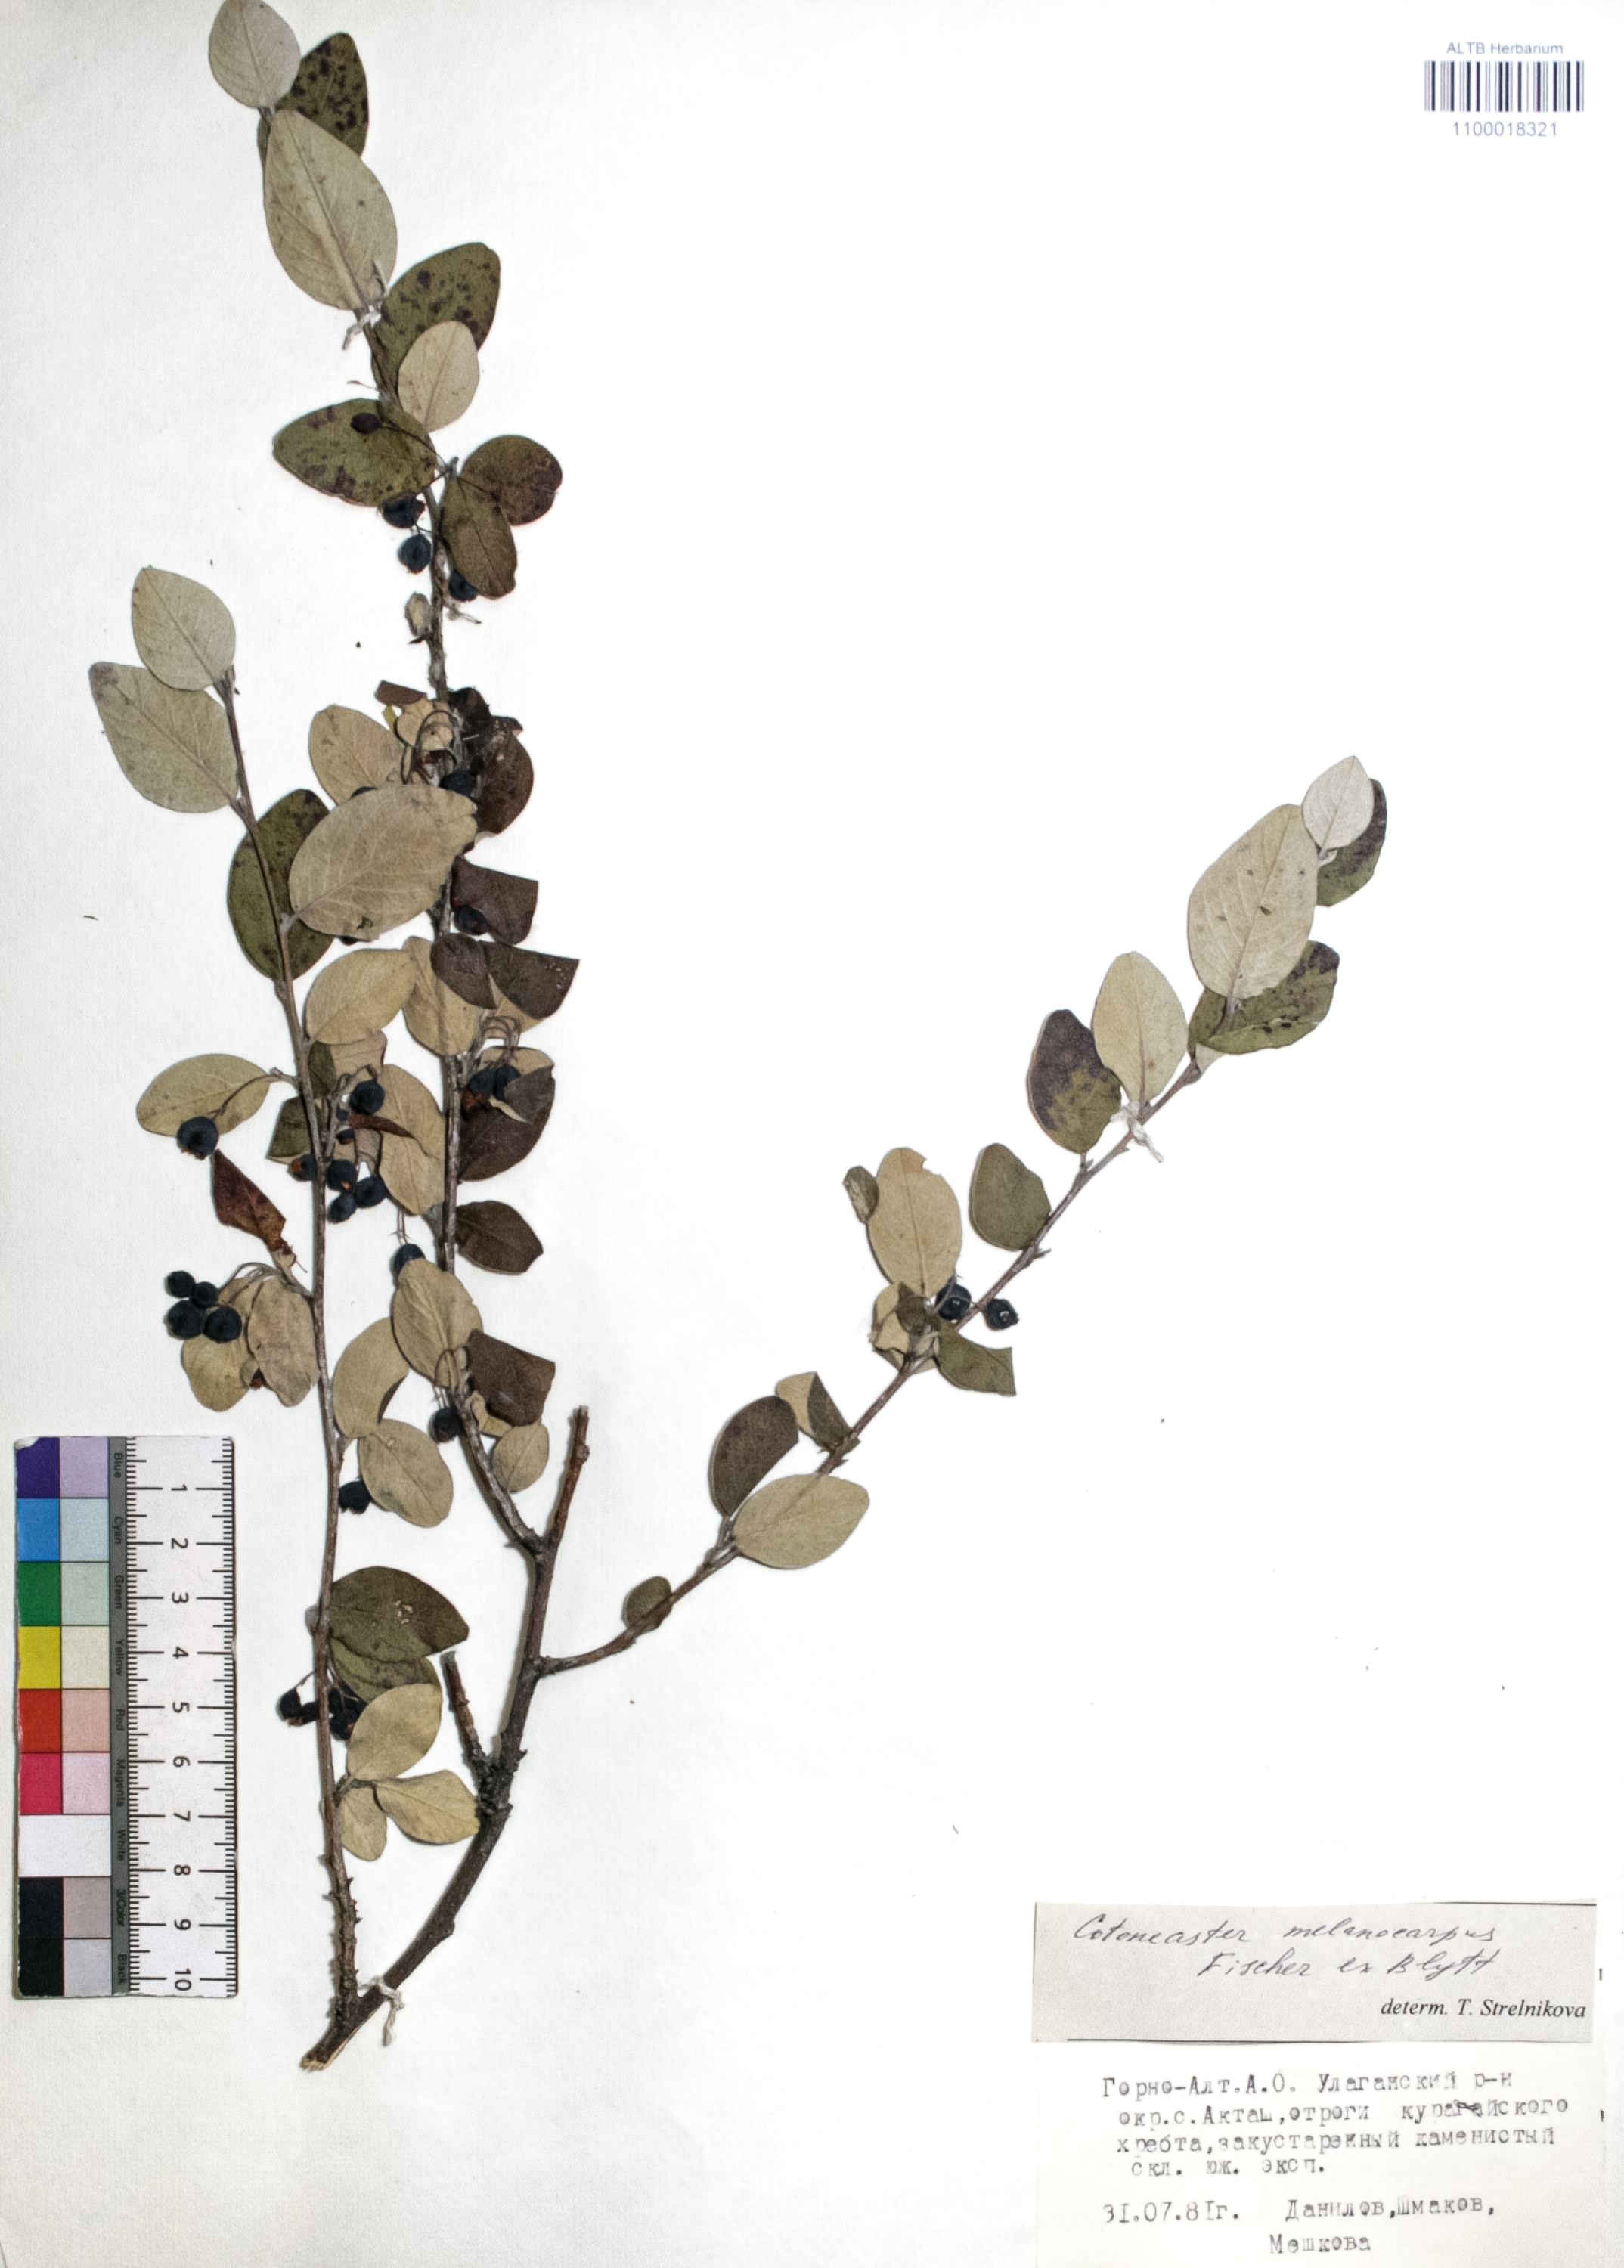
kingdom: Plantae
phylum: Tracheophyta
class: Magnoliopsida
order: Rosales
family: Rosaceae
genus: Cotoneaster
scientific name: Cotoneaster niger
